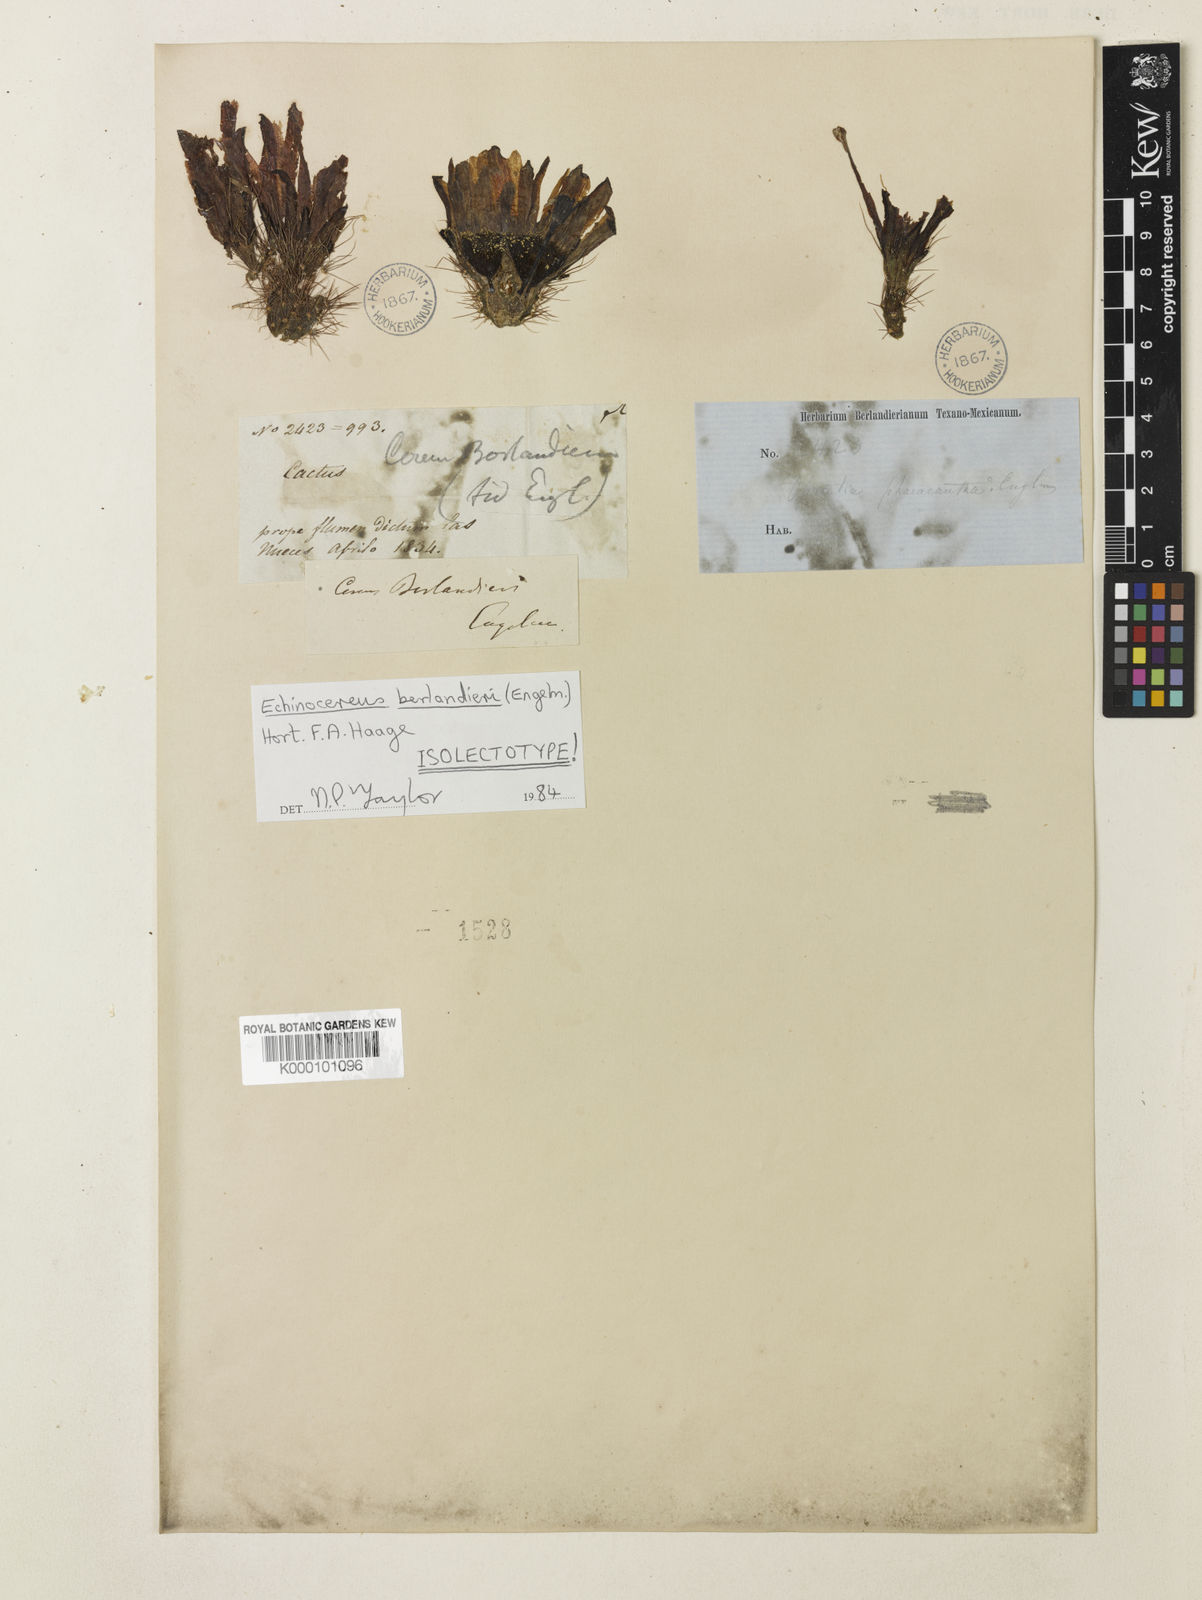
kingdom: Plantae
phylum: Tracheophyta
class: Magnoliopsida
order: Caryophyllales
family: Cactaceae
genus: Echinocereus
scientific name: Echinocereus berlandieri
